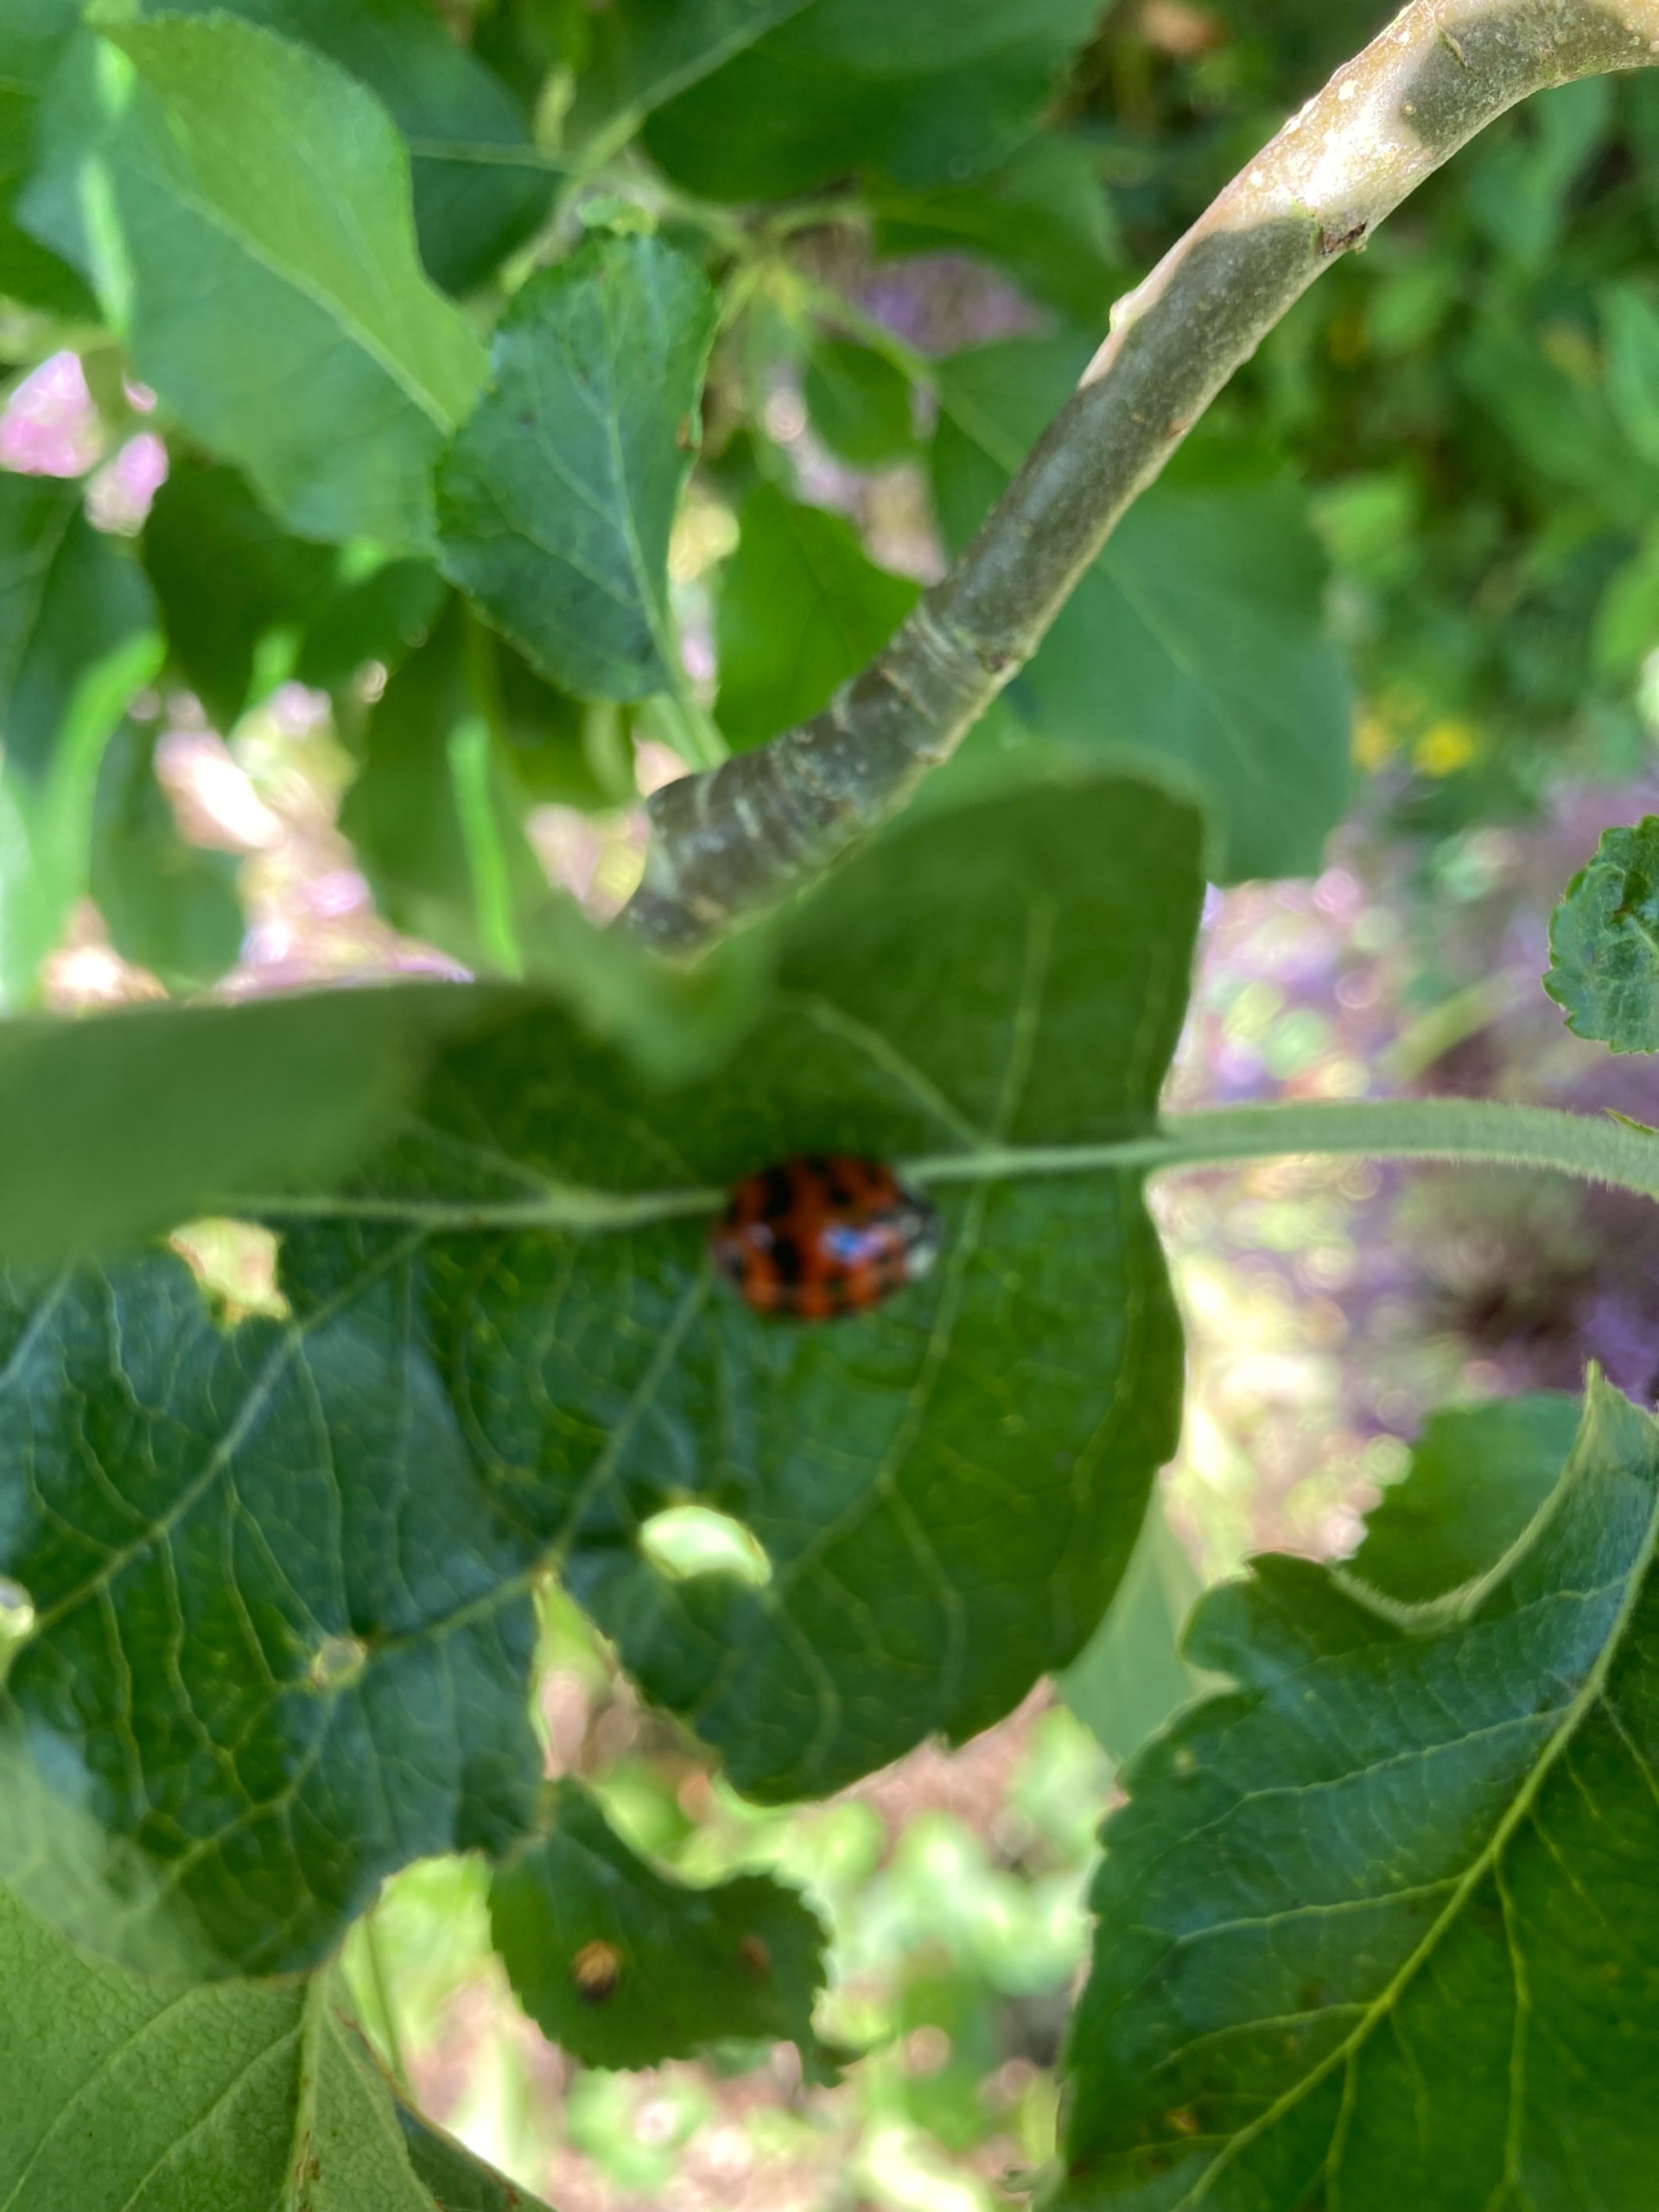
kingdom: Animalia
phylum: Arthropoda
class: Insecta
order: Coleoptera
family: Coccinellidae
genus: Harmonia
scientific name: Harmonia axyridis
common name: Harlekinmariehøne
